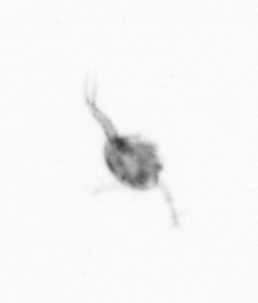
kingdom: Animalia
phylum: Arthropoda
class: Copepoda
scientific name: Copepoda
